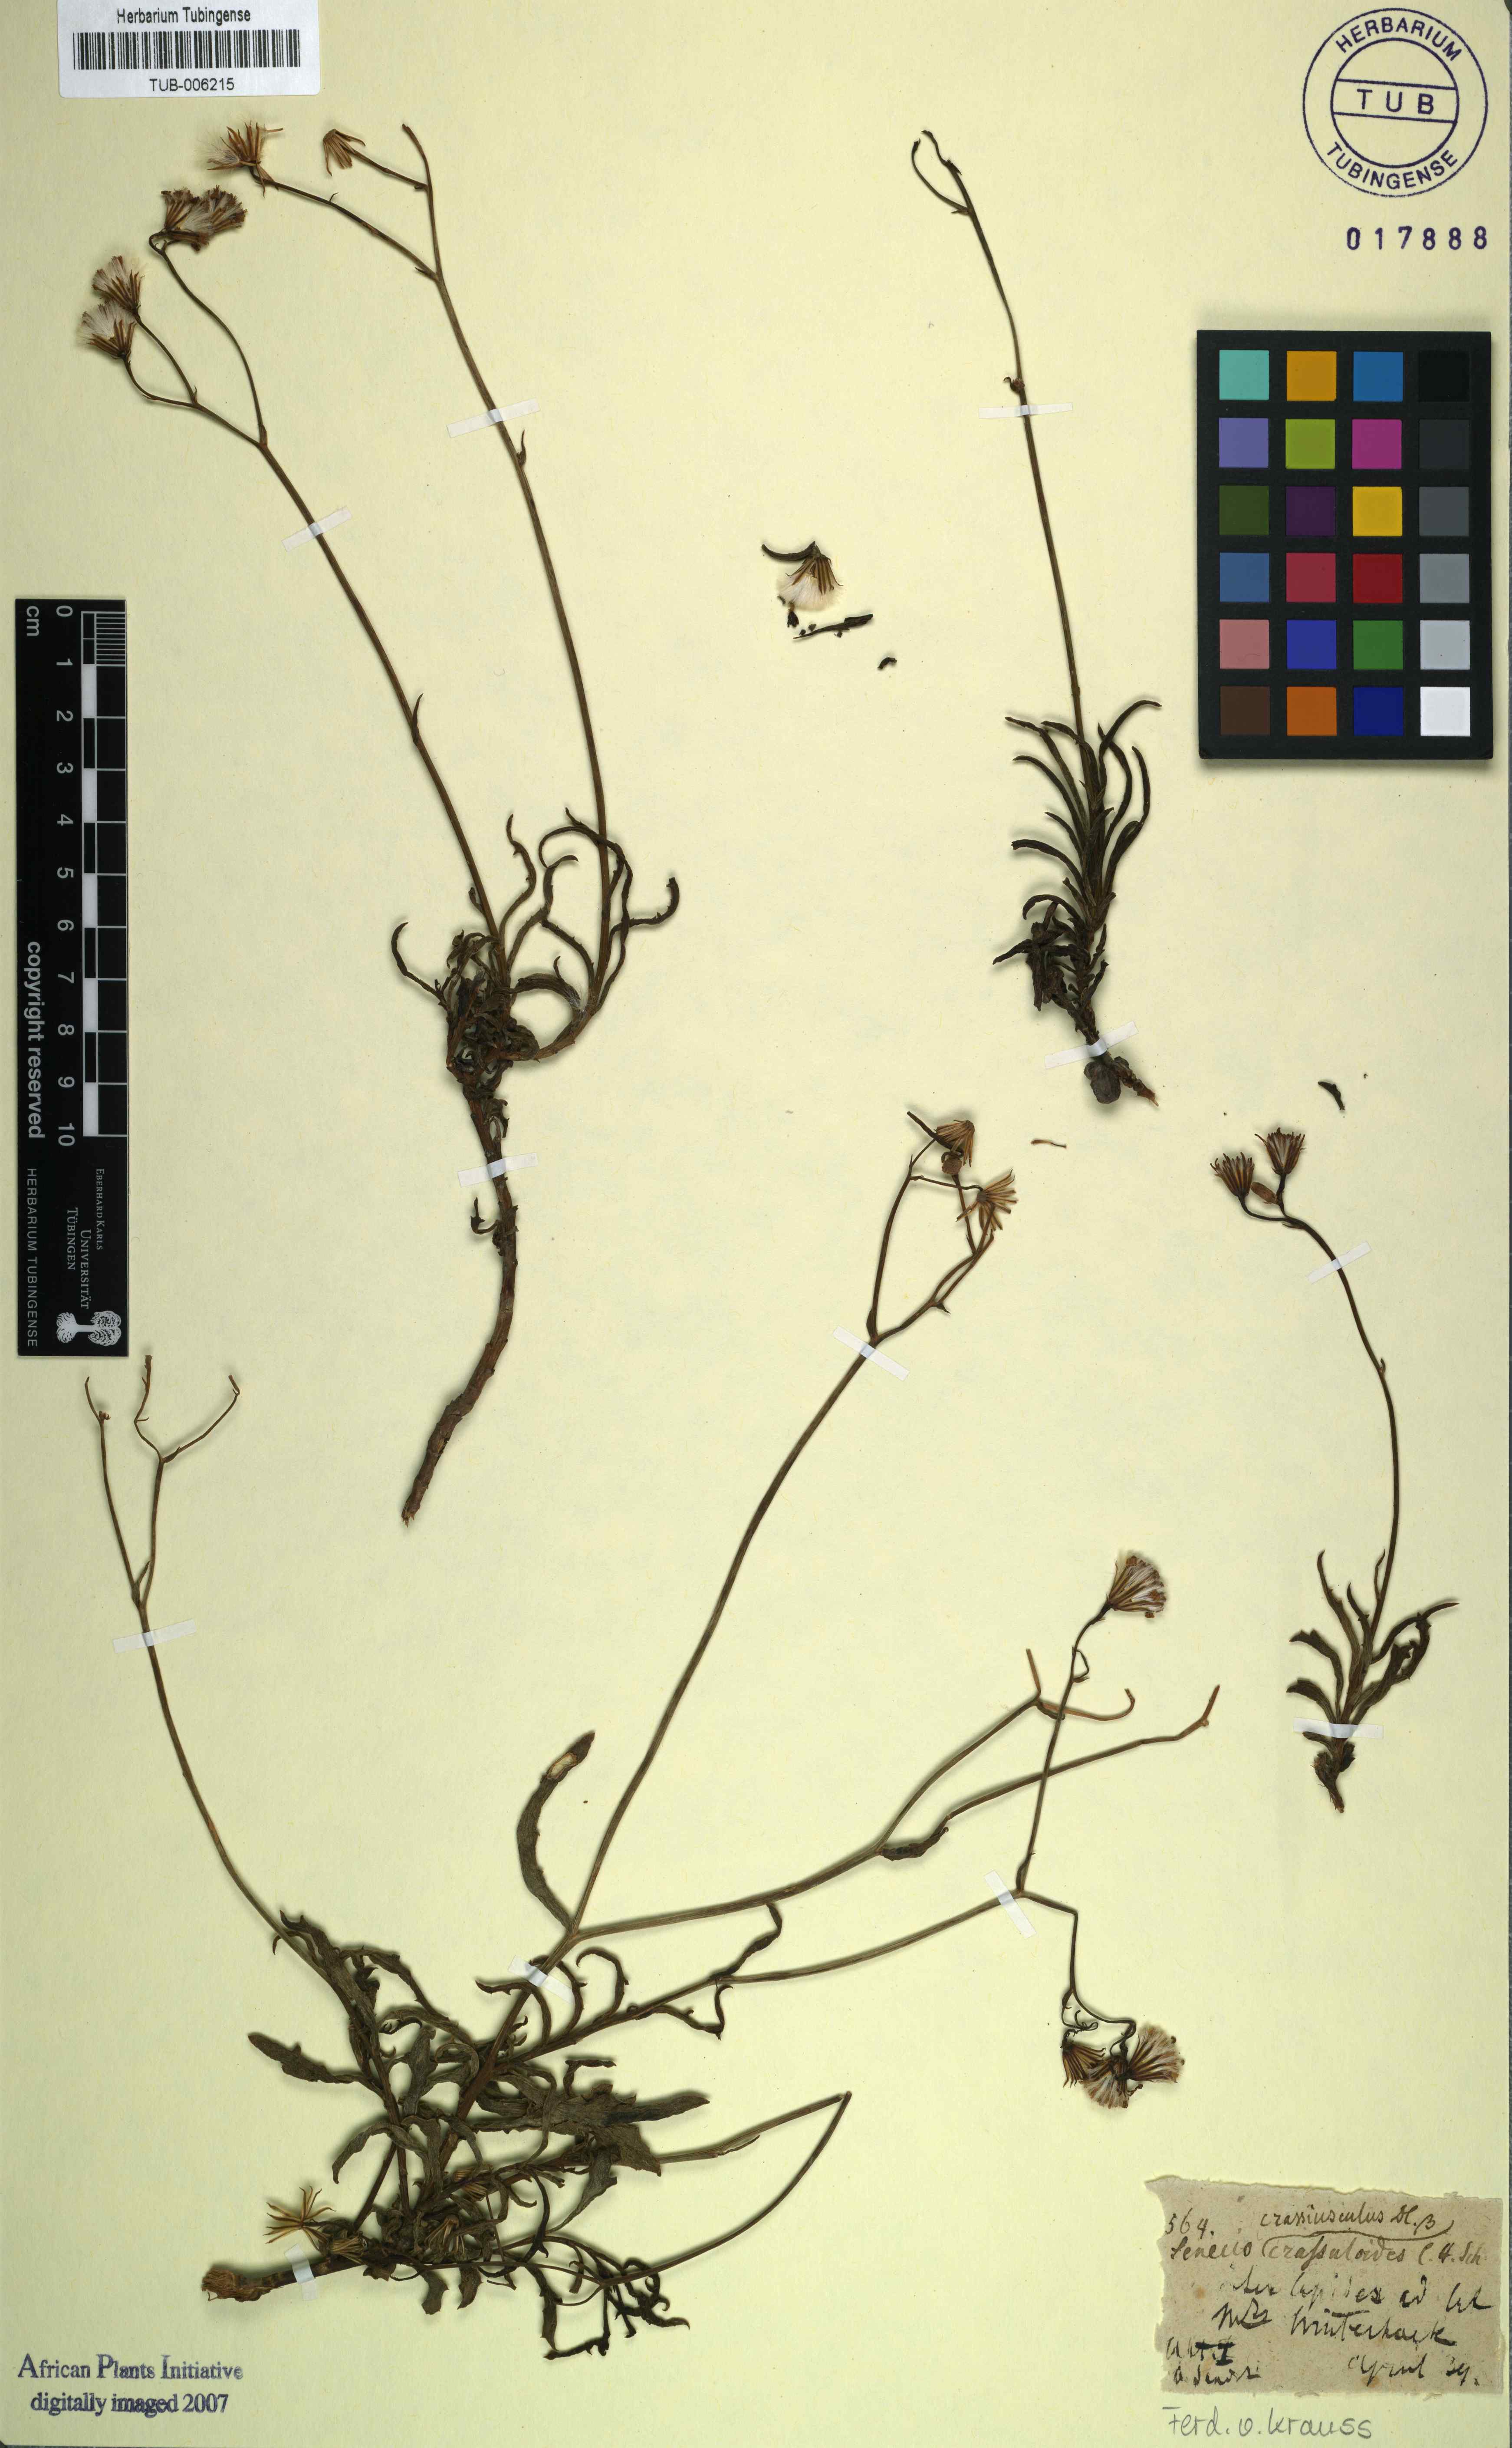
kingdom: Plantae
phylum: Tracheophyta
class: Magnoliopsida
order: Asterales
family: Asteraceae
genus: Senecio
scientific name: Senecio crassiusculus
